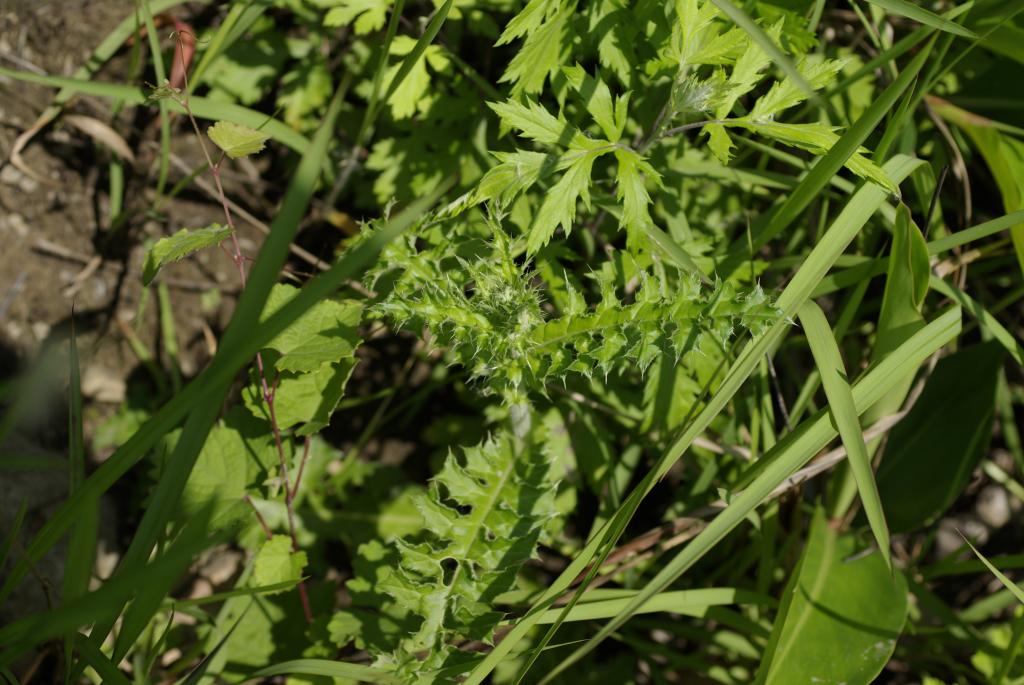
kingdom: Plantae
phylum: Tracheophyta
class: Magnoliopsida
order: Asterales
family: Asteraceae
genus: Cirsium
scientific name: Cirsium japonicum
